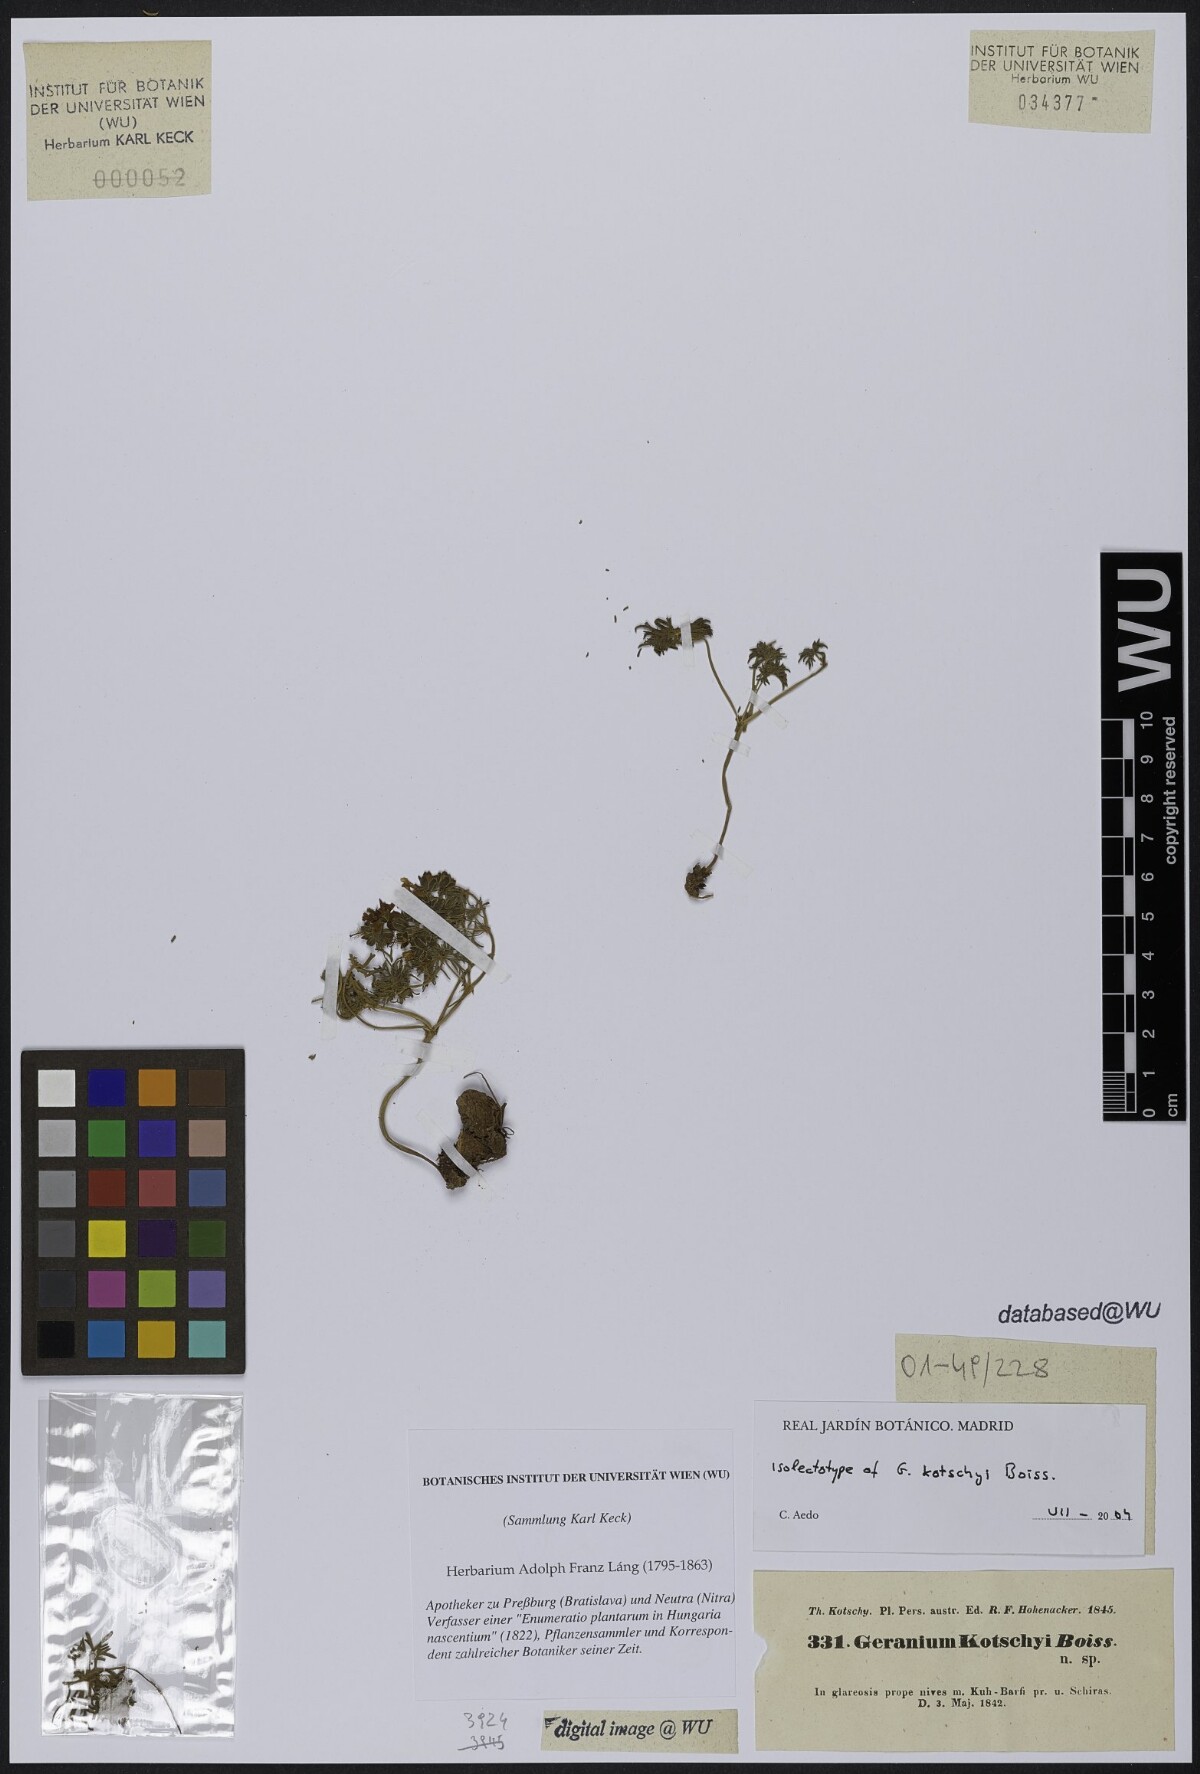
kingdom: Plantae
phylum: Tracheophyta
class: Magnoliopsida
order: Geraniales
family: Geraniaceae
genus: Geranium
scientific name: Geranium kotschyi
